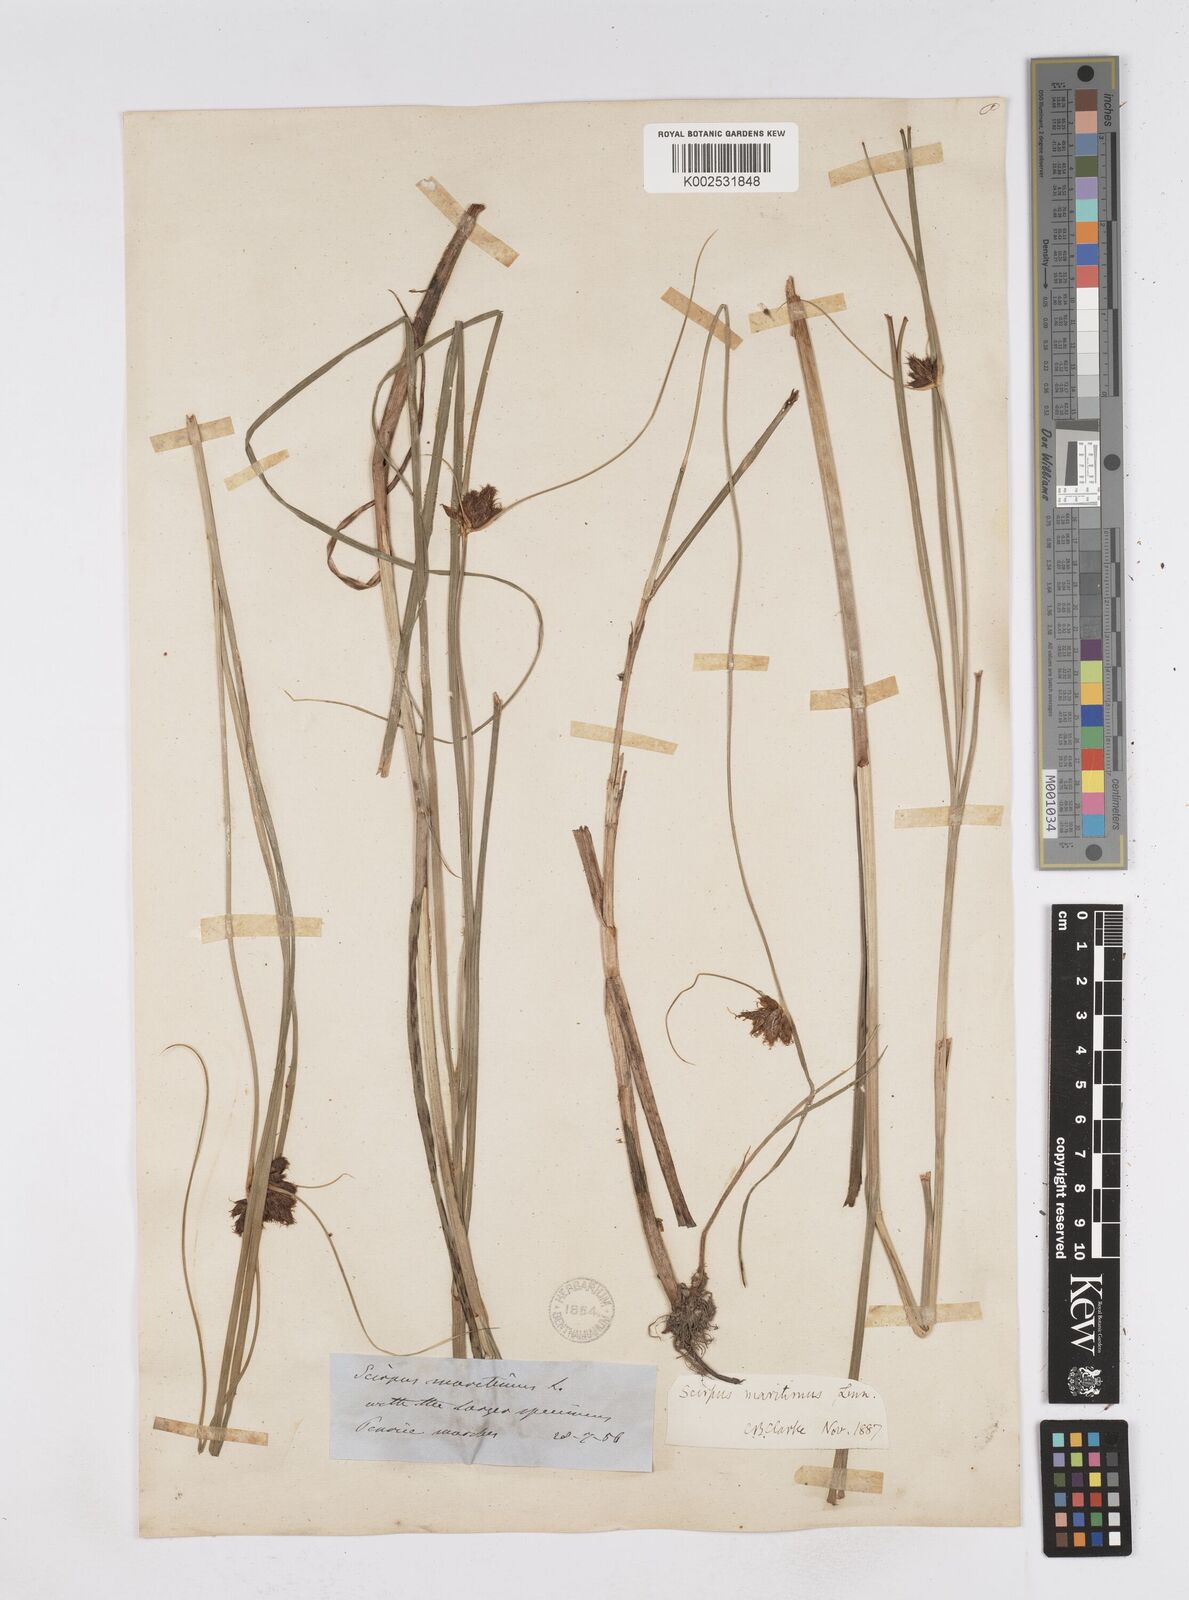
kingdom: Plantae
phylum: Tracheophyta
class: Liliopsida
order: Poales
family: Cyperaceae
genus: Bolboschoenus
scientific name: Bolboschoenus maritimus
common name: Sea club-rush
